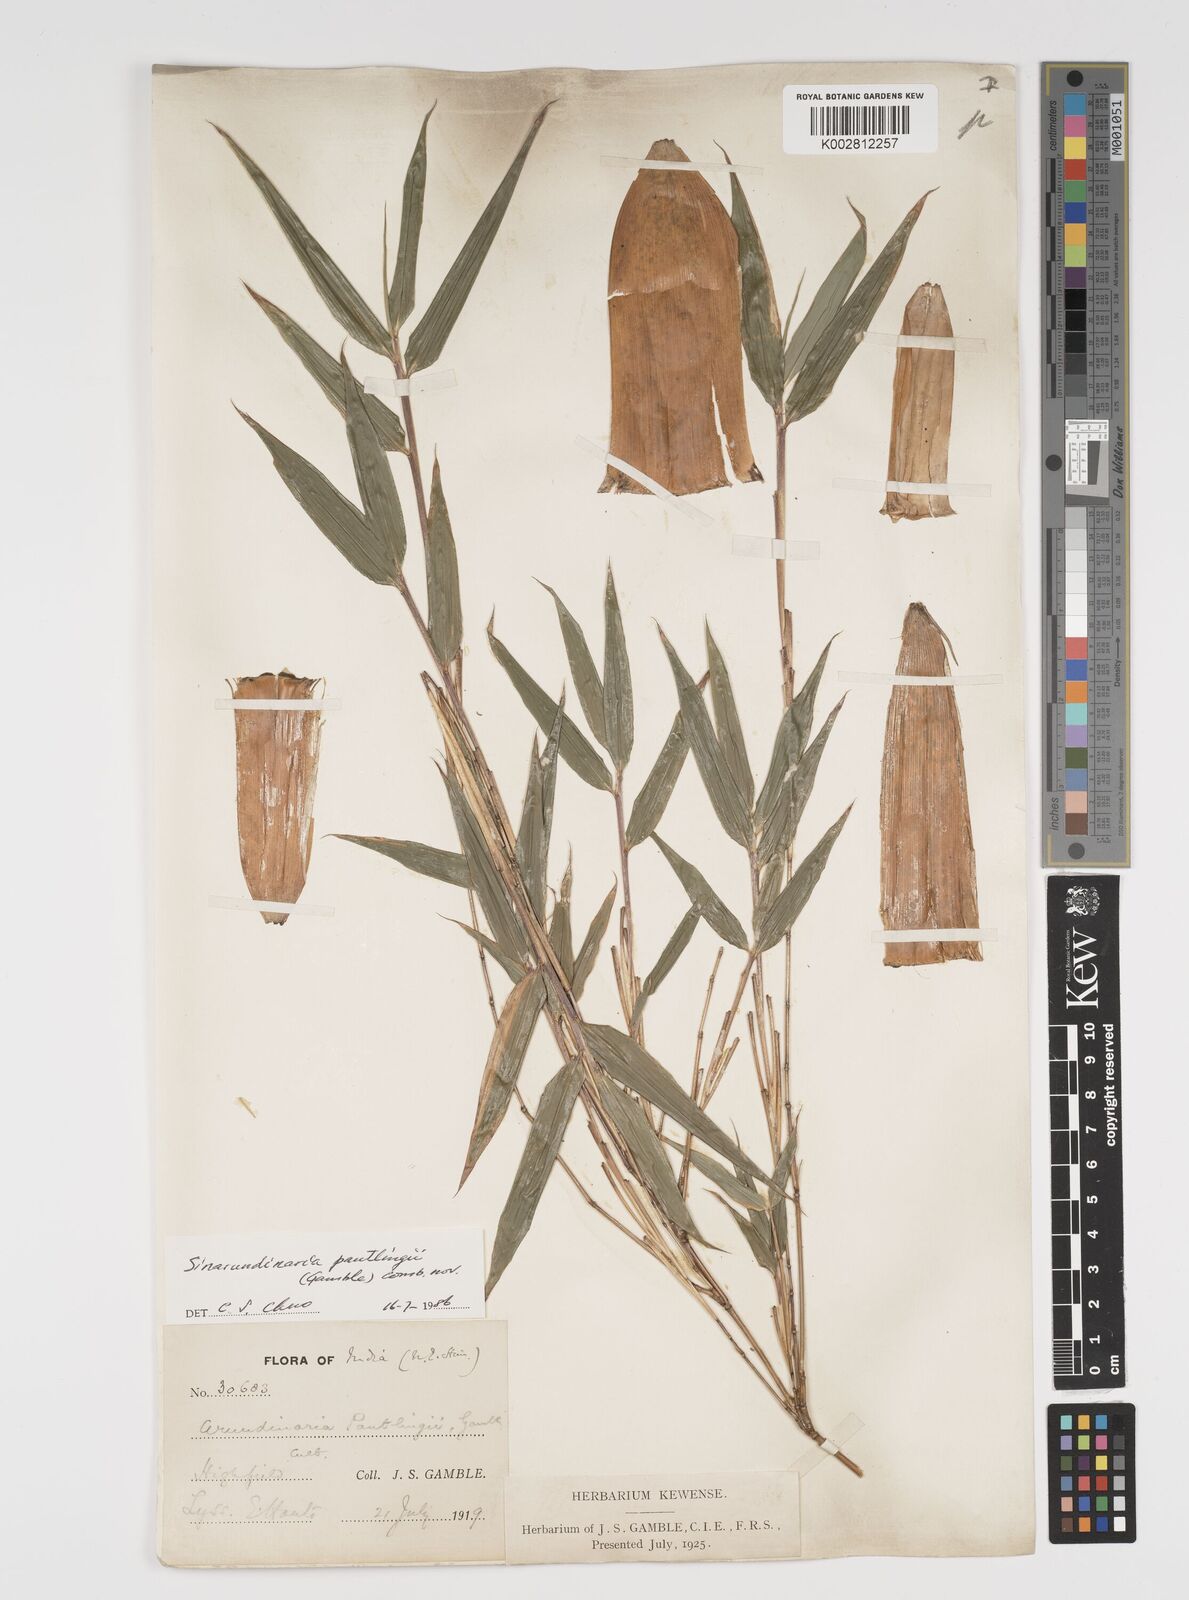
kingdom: Plantae
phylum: Tracheophyta
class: Liliopsida
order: Poales
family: Poaceae
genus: Yushania
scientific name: Yushania pantlingii
